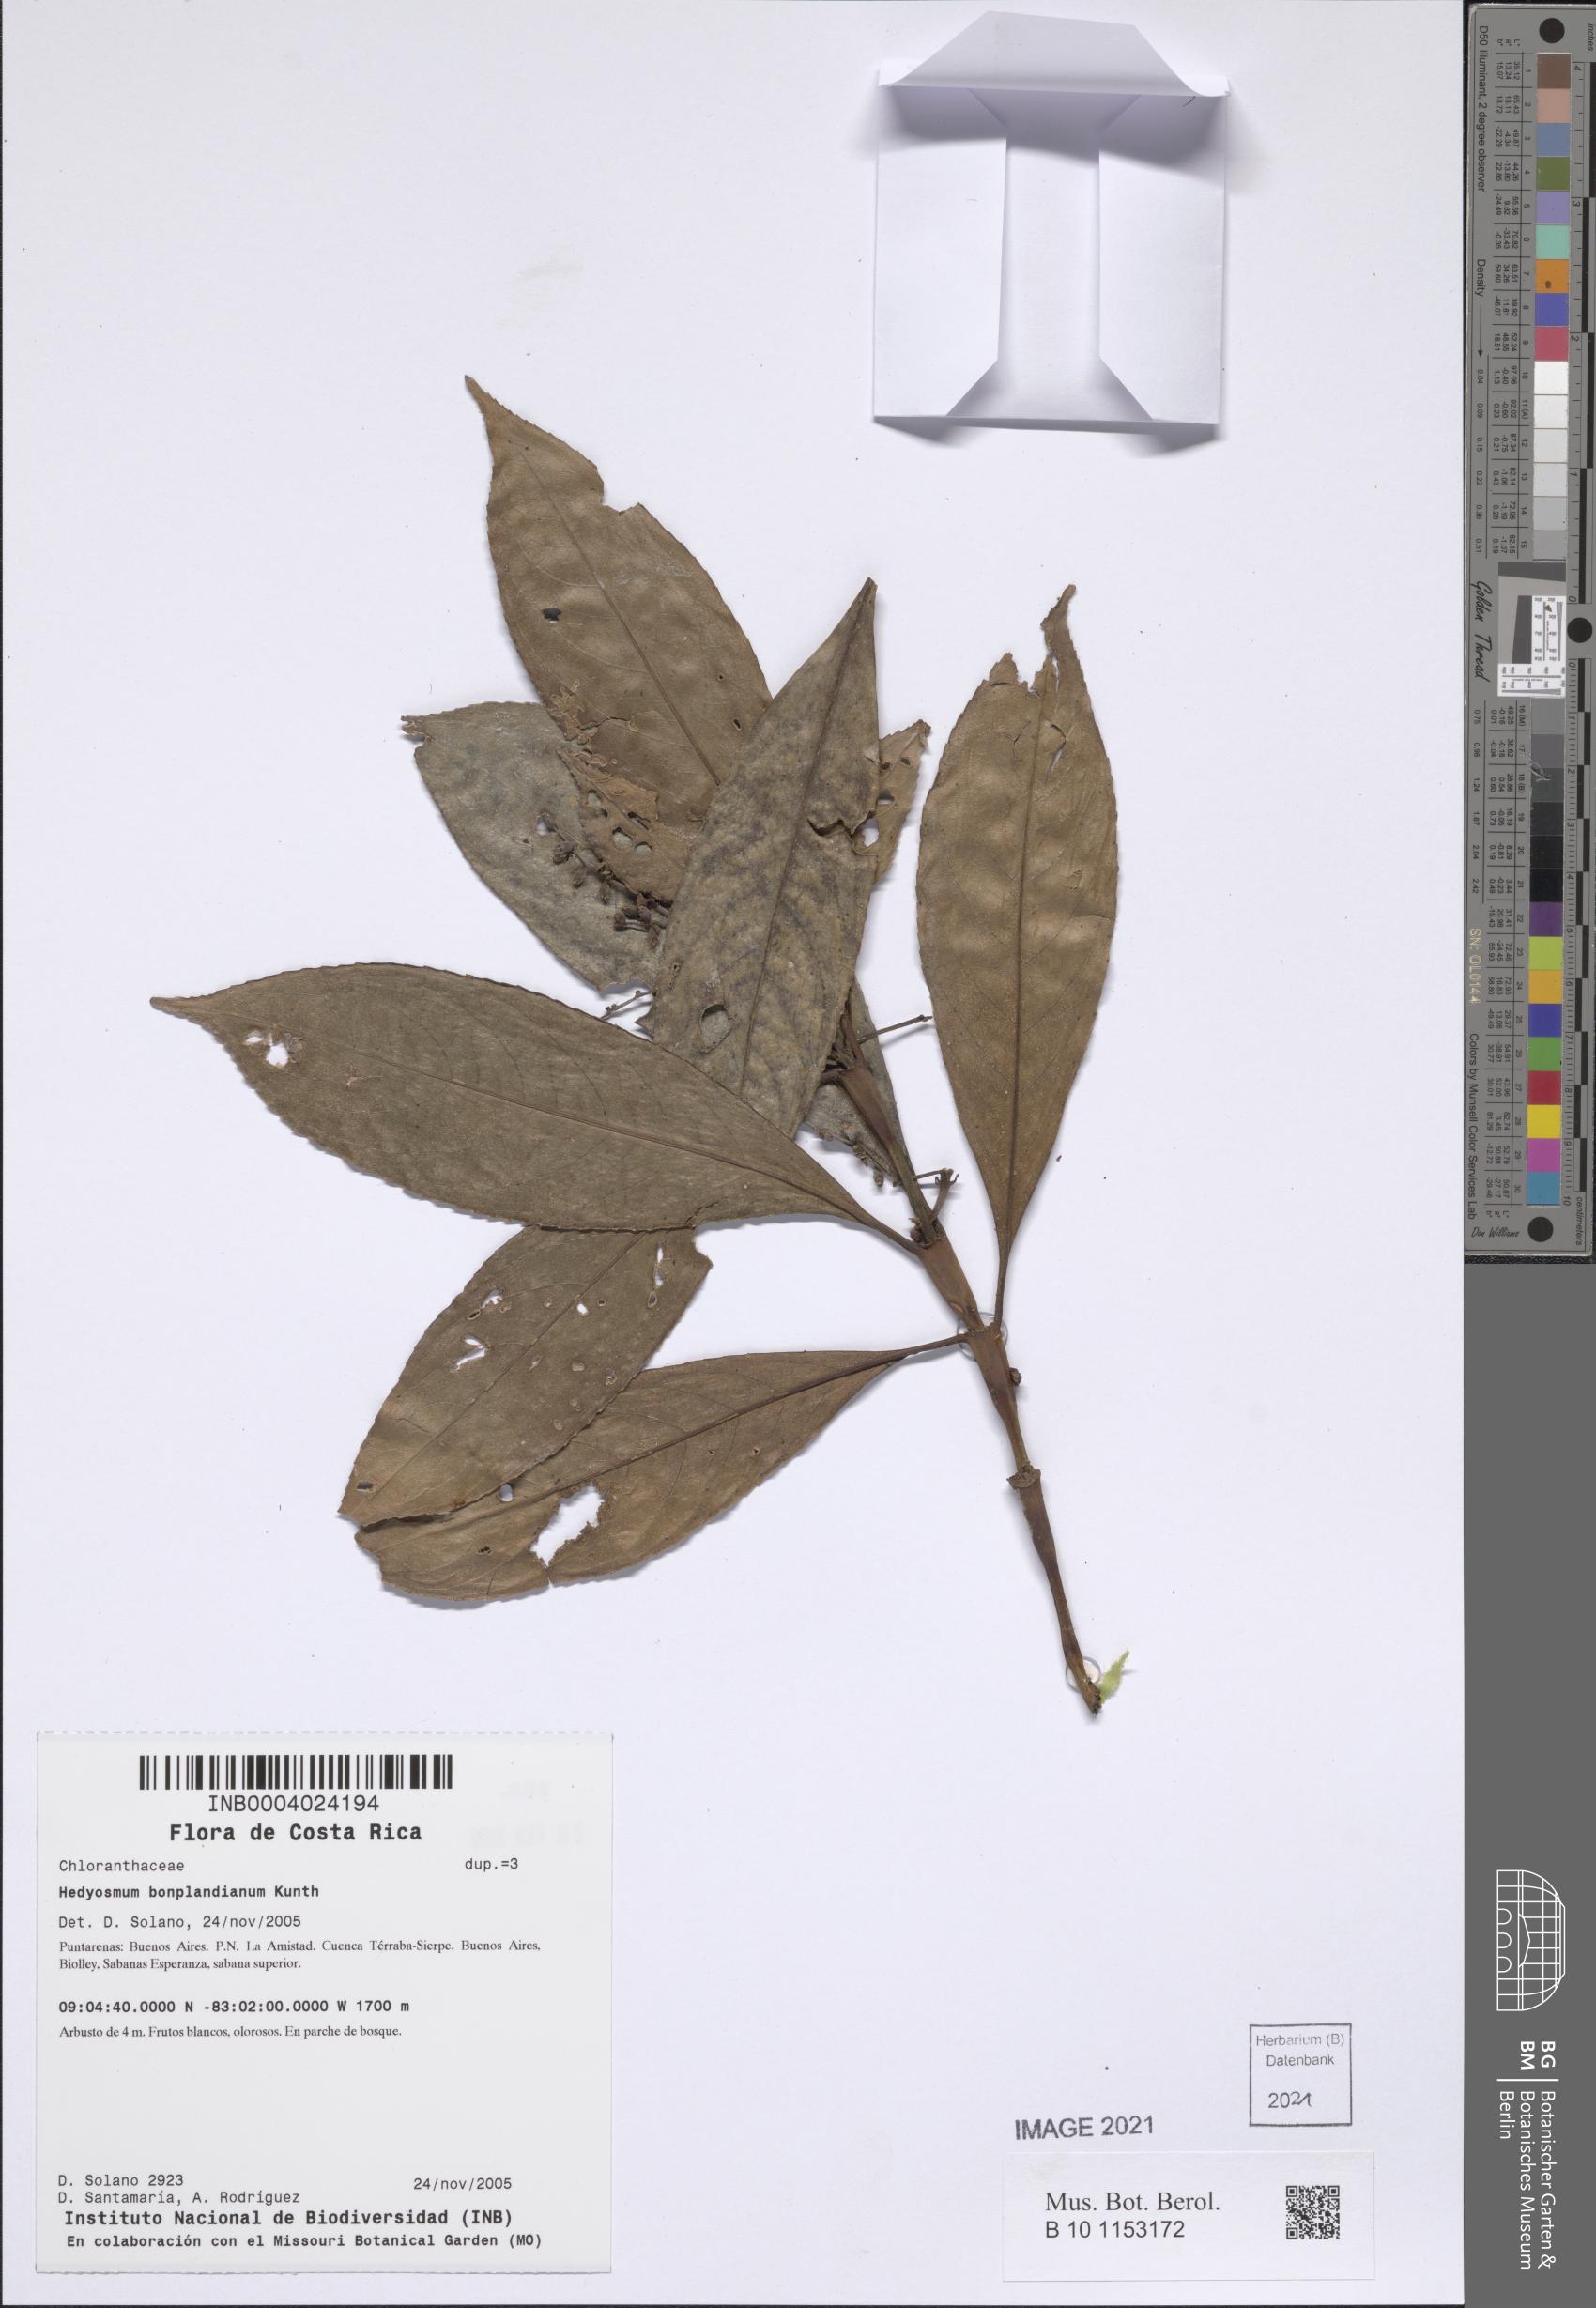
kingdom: Plantae
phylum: Tracheophyta
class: Magnoliopsida
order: Chloranthales
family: Chloranthaceae
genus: Hedyosmum
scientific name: Hedyosmum bonplandianum
